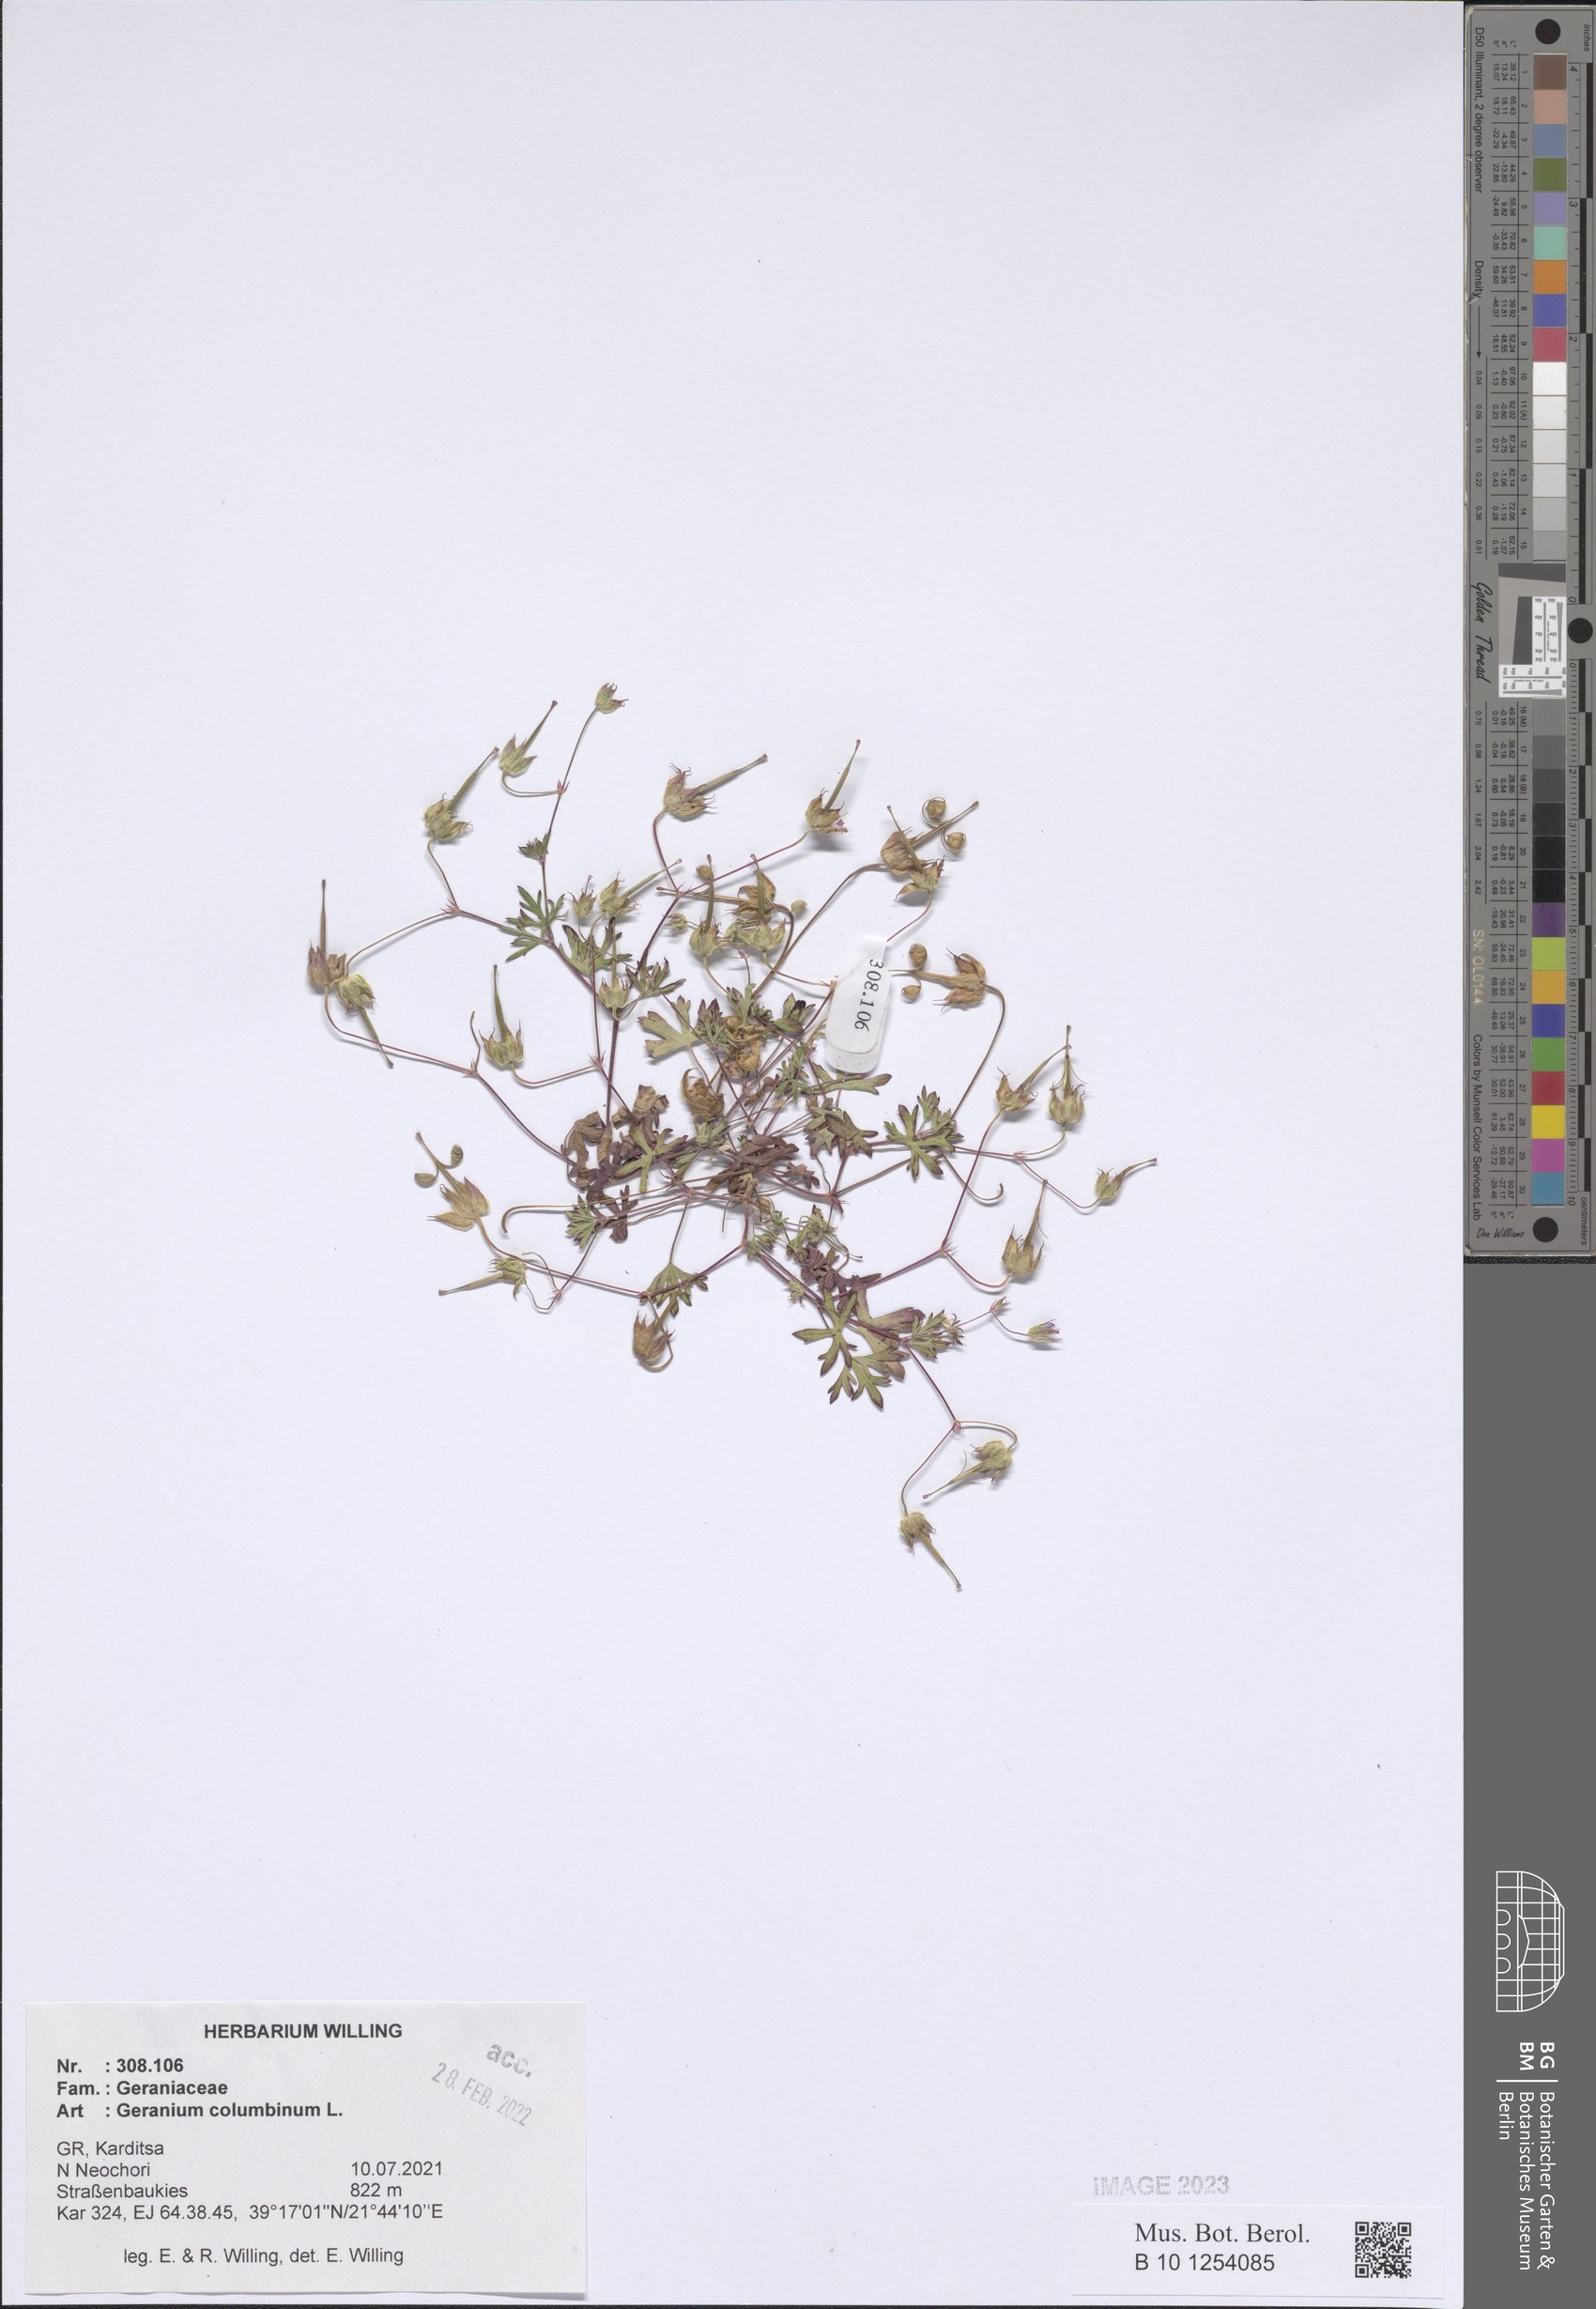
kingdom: Plantae
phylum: Tracheophyta
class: Magnoliopsida
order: Geraniales
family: Geraniaceae
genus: Geranium
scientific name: Geranium columbinum
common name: Long-stalked crane's-bill
